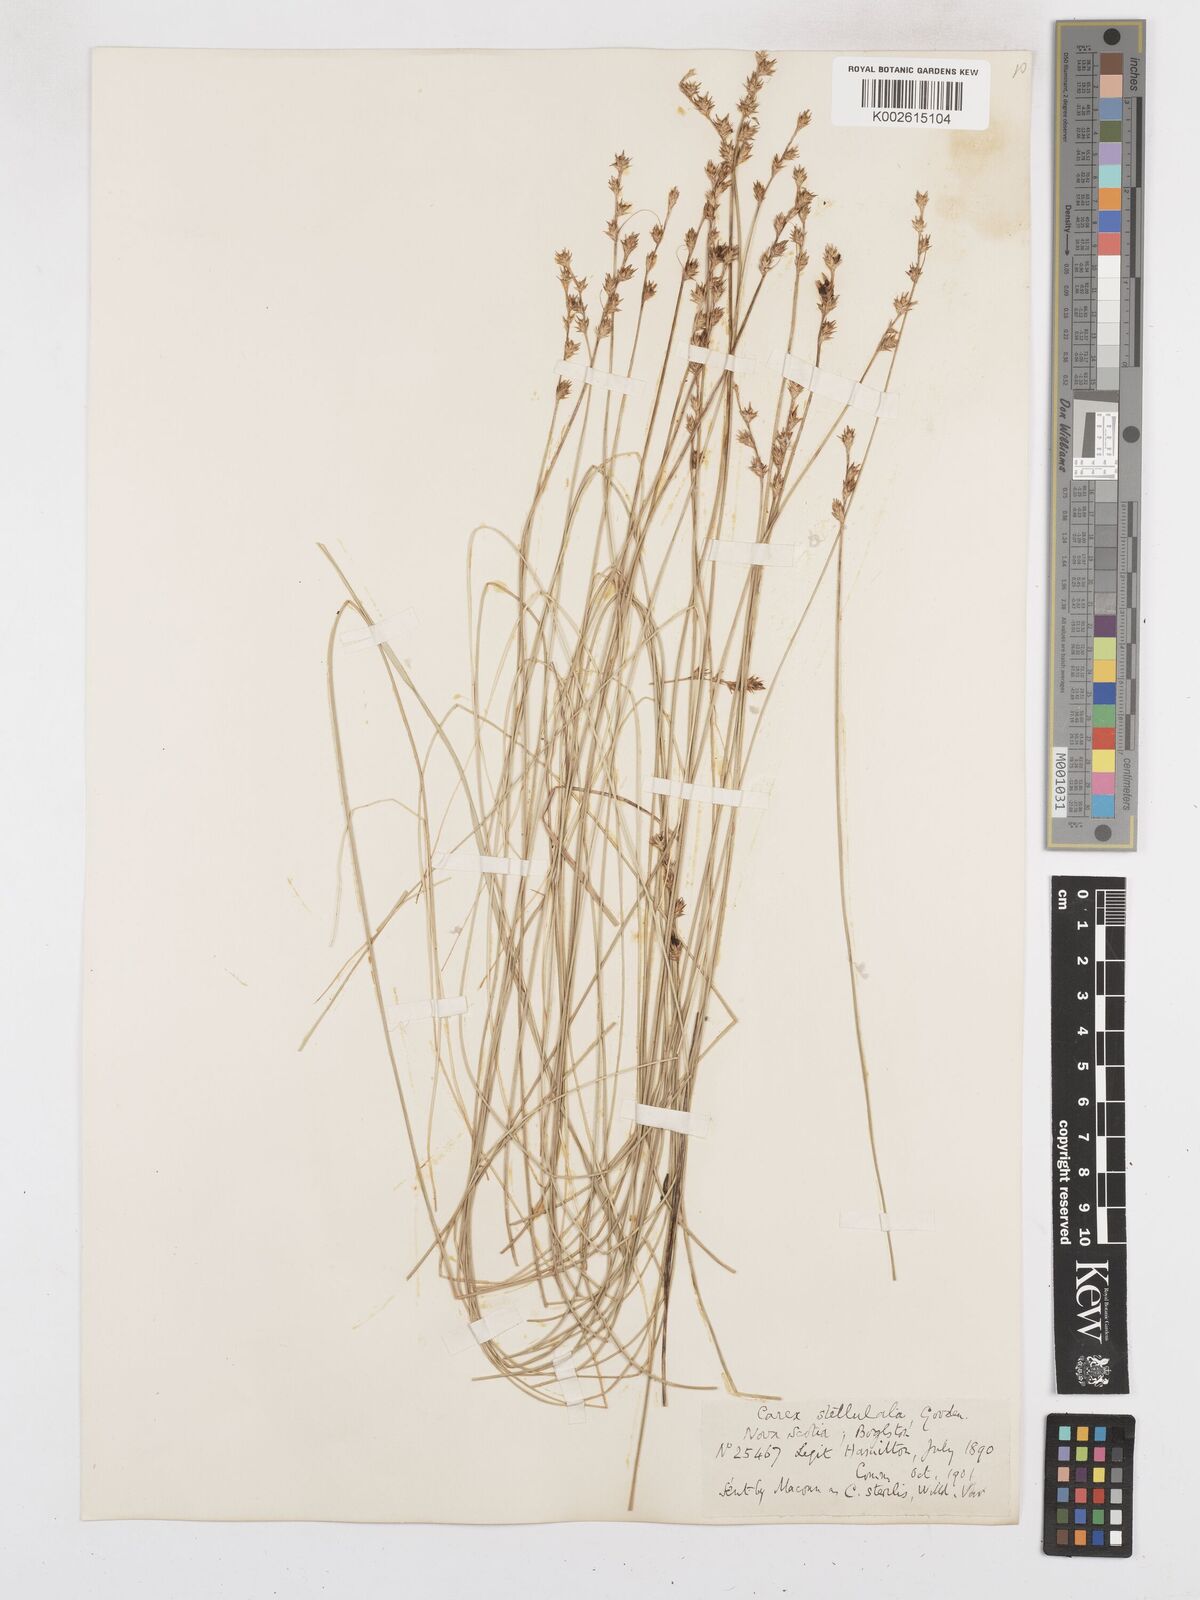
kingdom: Plantae
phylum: Tracheophyta
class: Liliopsida
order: Poales
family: Cyperaceae
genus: Carex
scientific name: Carex echinata
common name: Star sedge
